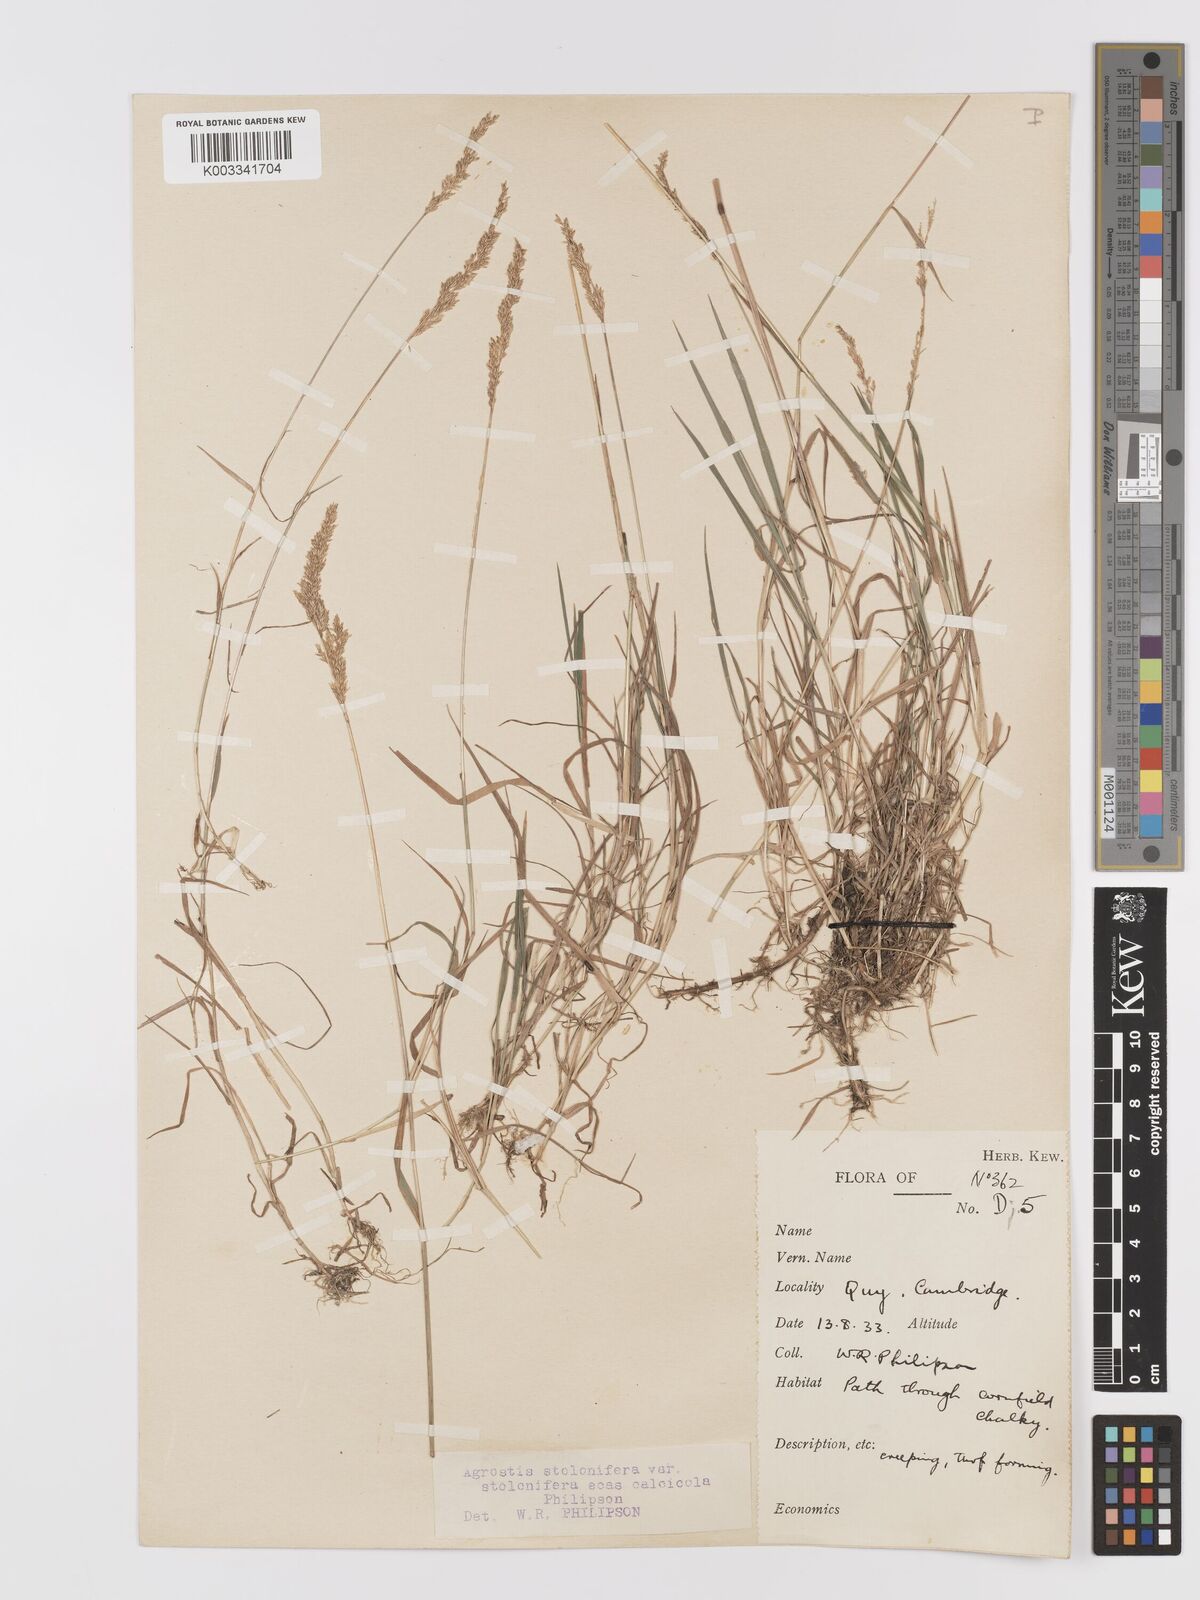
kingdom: Plantae
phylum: Tracheophyta
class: Liliopsida
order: Poales
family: Poaceae
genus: Agrostis
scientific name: Agrostis stolonifera
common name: Creeping bentgrass
